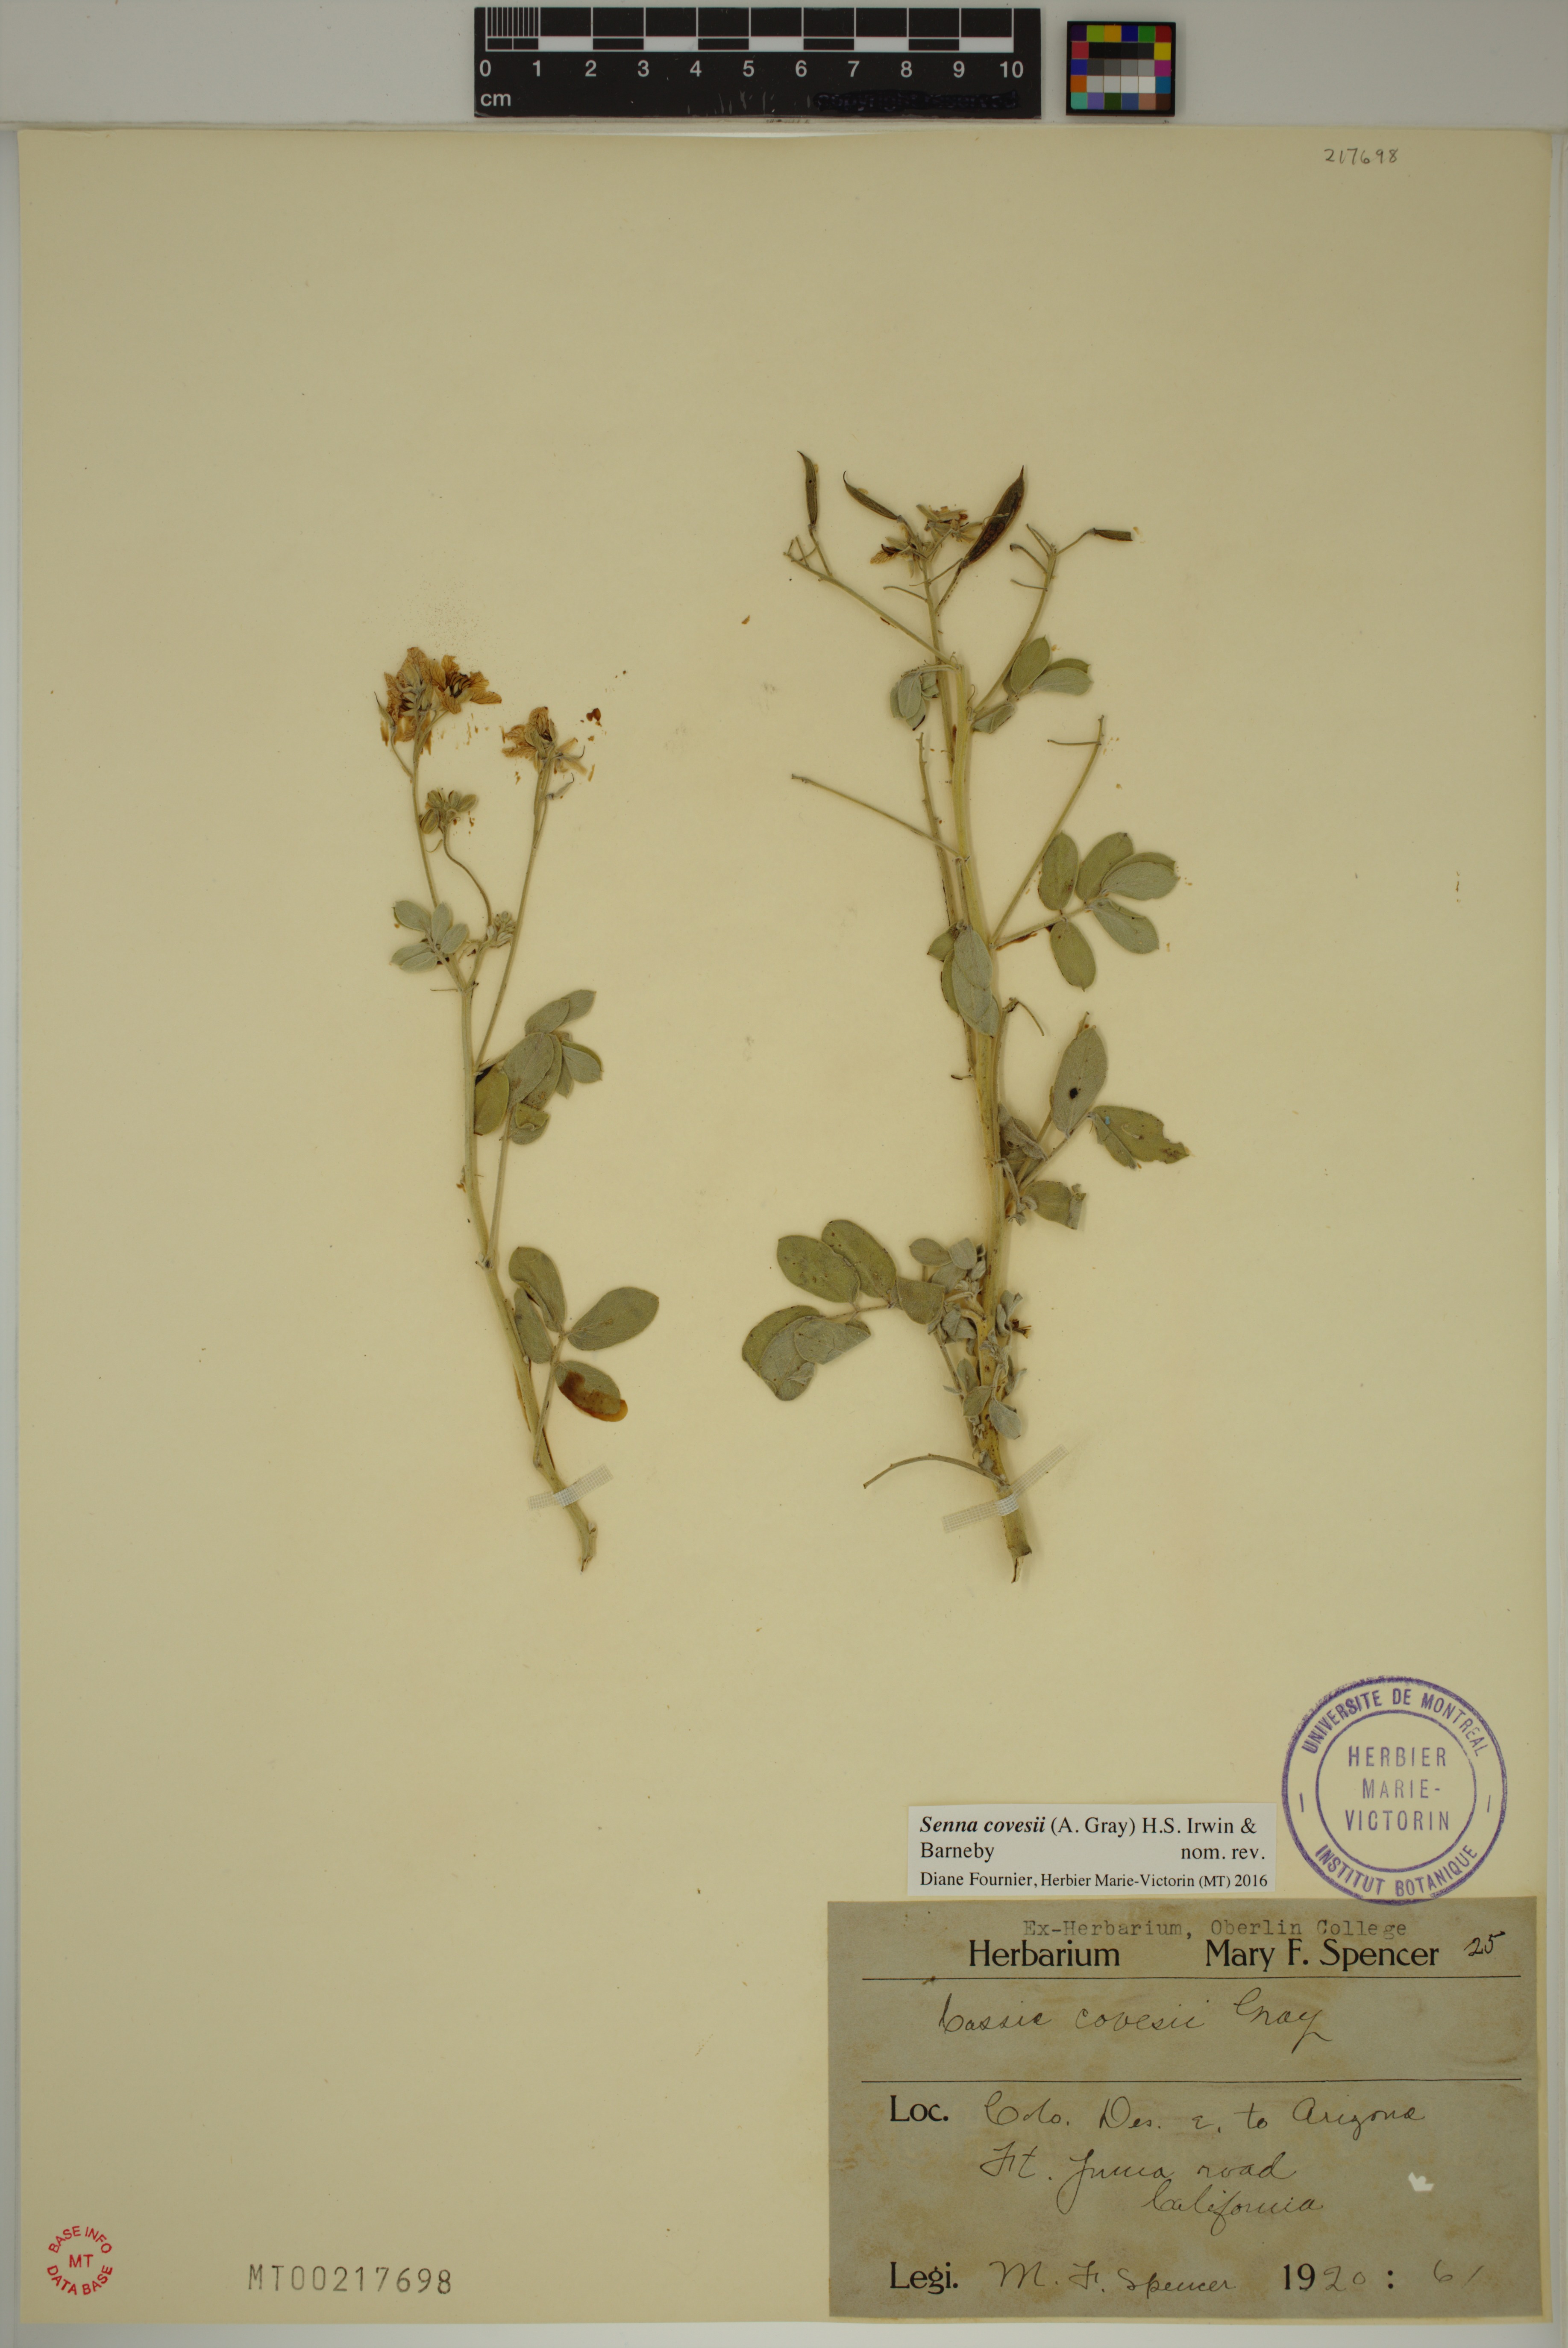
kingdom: Plantae
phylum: Tracheophyta
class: Magnoliopsida
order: Fabales
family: Fabaceae
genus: Senna
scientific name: Senna covesii
